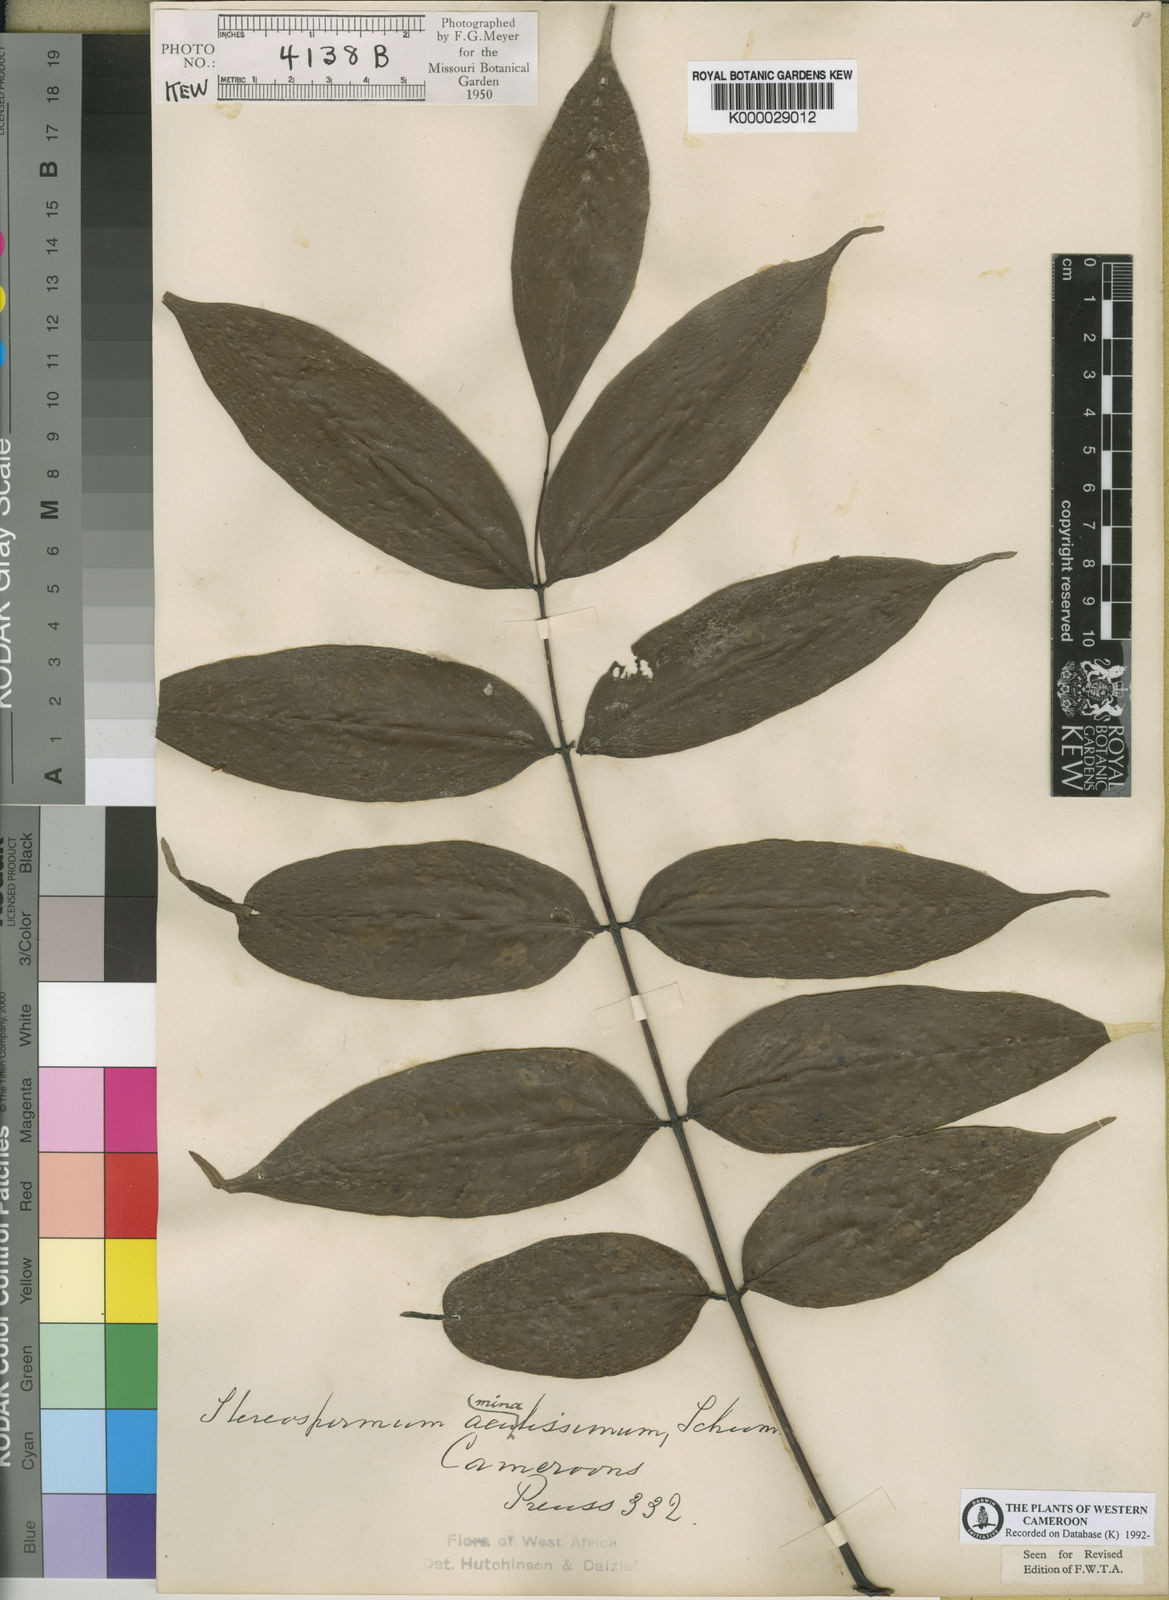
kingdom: Plantae
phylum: Tracheophyta
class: Magnoliopsida
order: Lamiales
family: Bignoniaceae
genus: Stereospermum
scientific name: Stereospermum acuminatissimum
